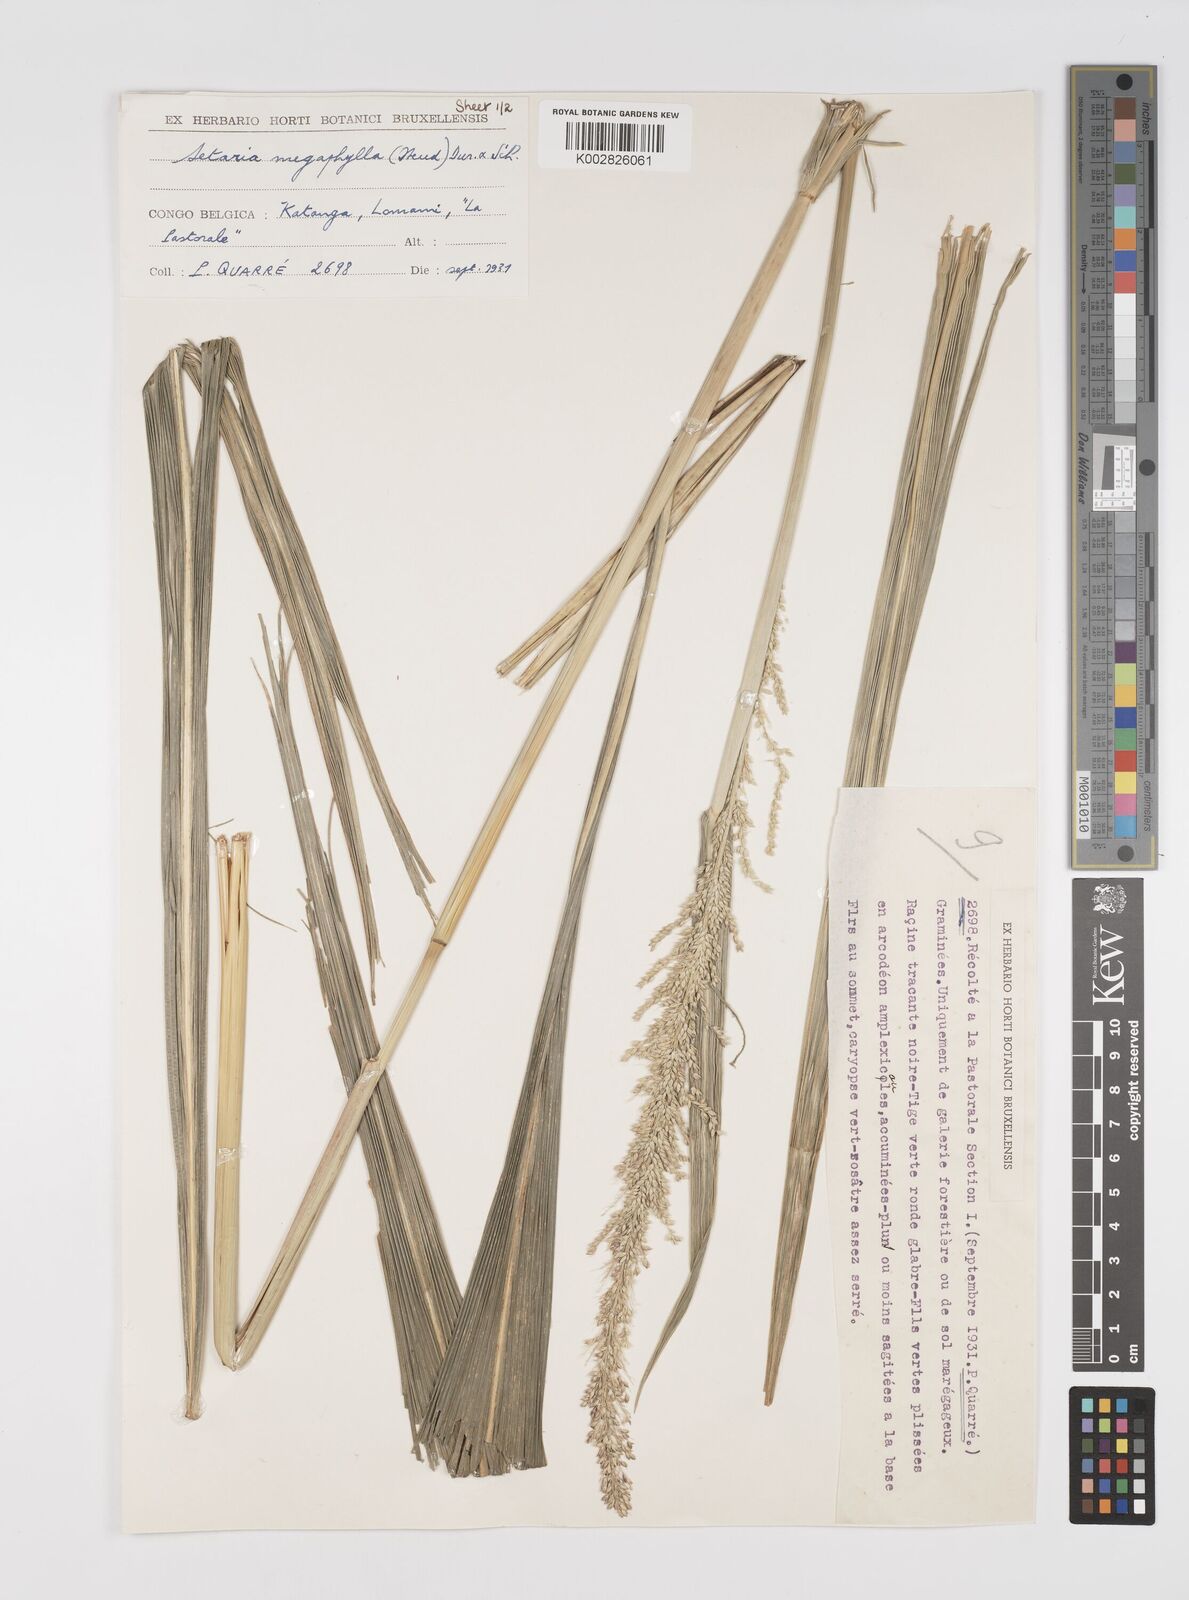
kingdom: Plantae
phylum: Tracheophyta
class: Liliopsida
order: Poales
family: Poaceae
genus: Setaria
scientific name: Setaria megaphylla
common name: Bigleaf bristlegrass
